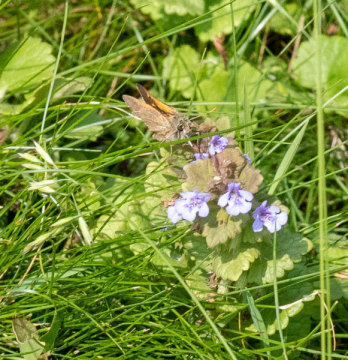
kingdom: Animalia
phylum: Arthropoda
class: Insecta
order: Lepidoptera
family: Hesperiidae
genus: Polites
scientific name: Polites themistocles
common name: Tawny-edged Skipper
